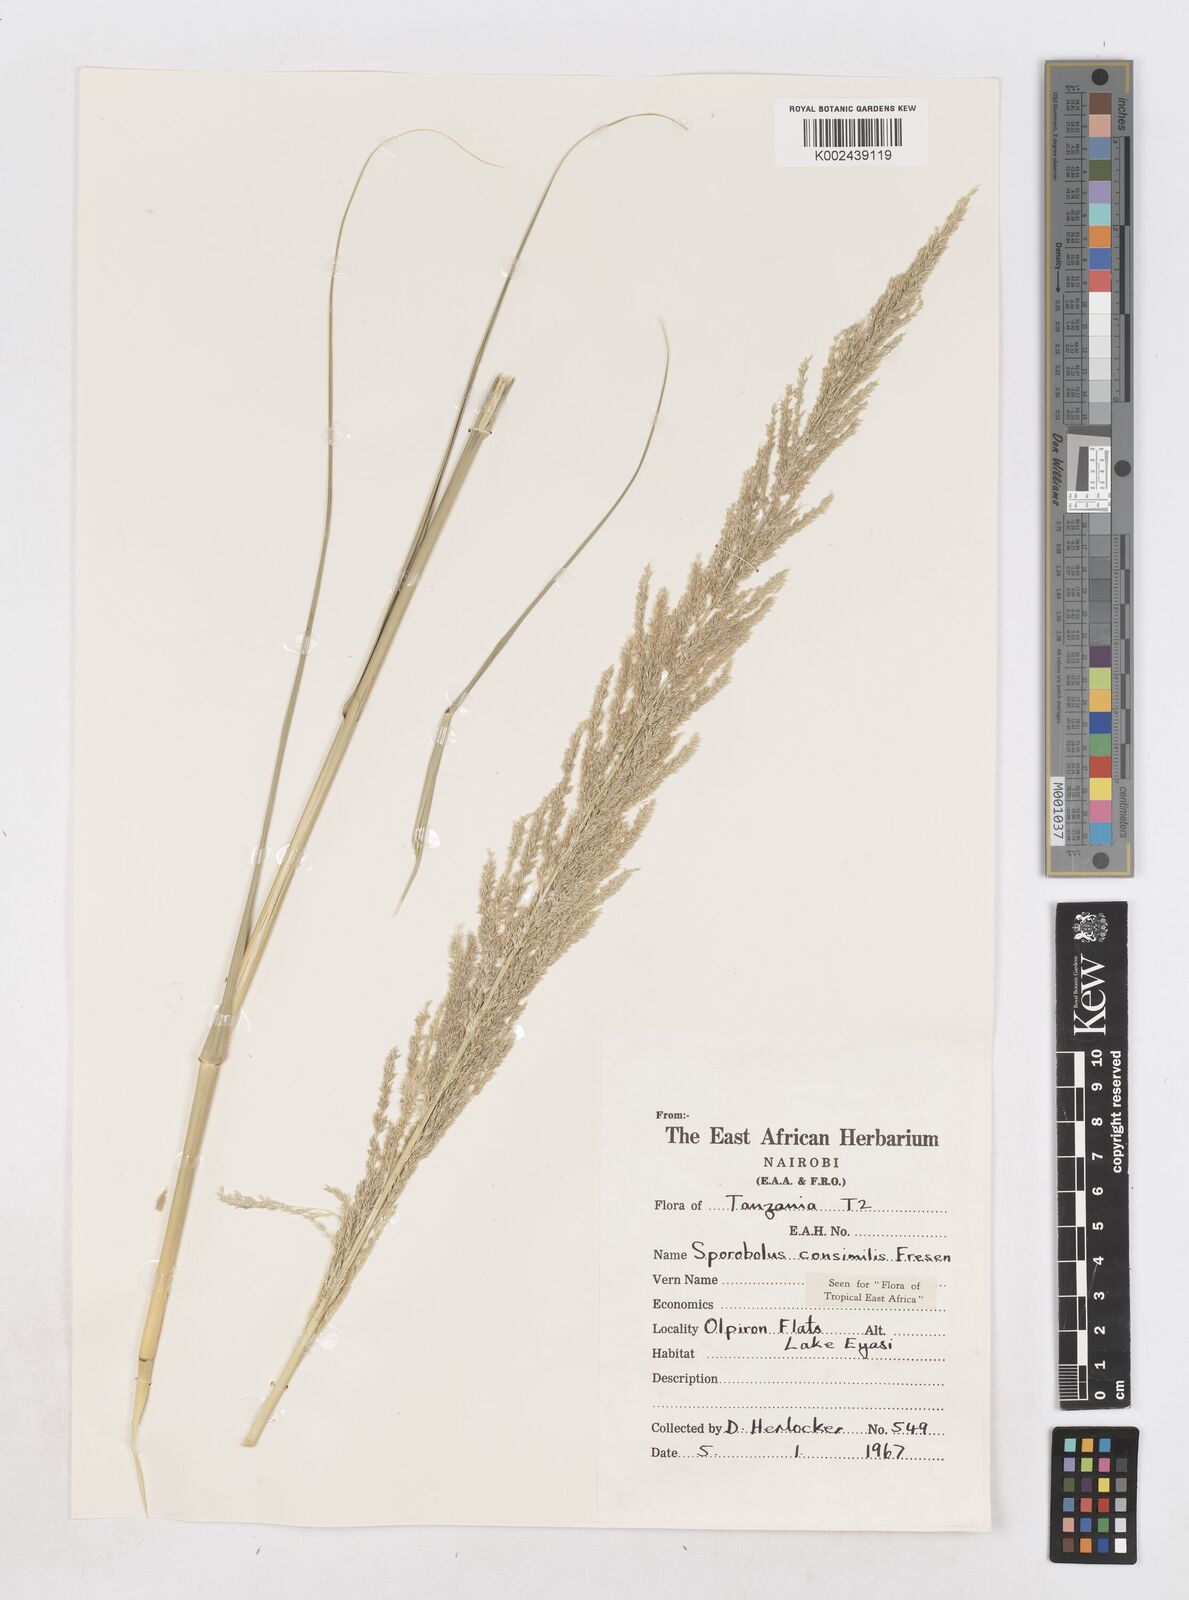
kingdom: Plantae
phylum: Tracheophyta
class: Liliopsida
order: Poales
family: Poaceae
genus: Sporobolus
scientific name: Sporobolus consimilis
